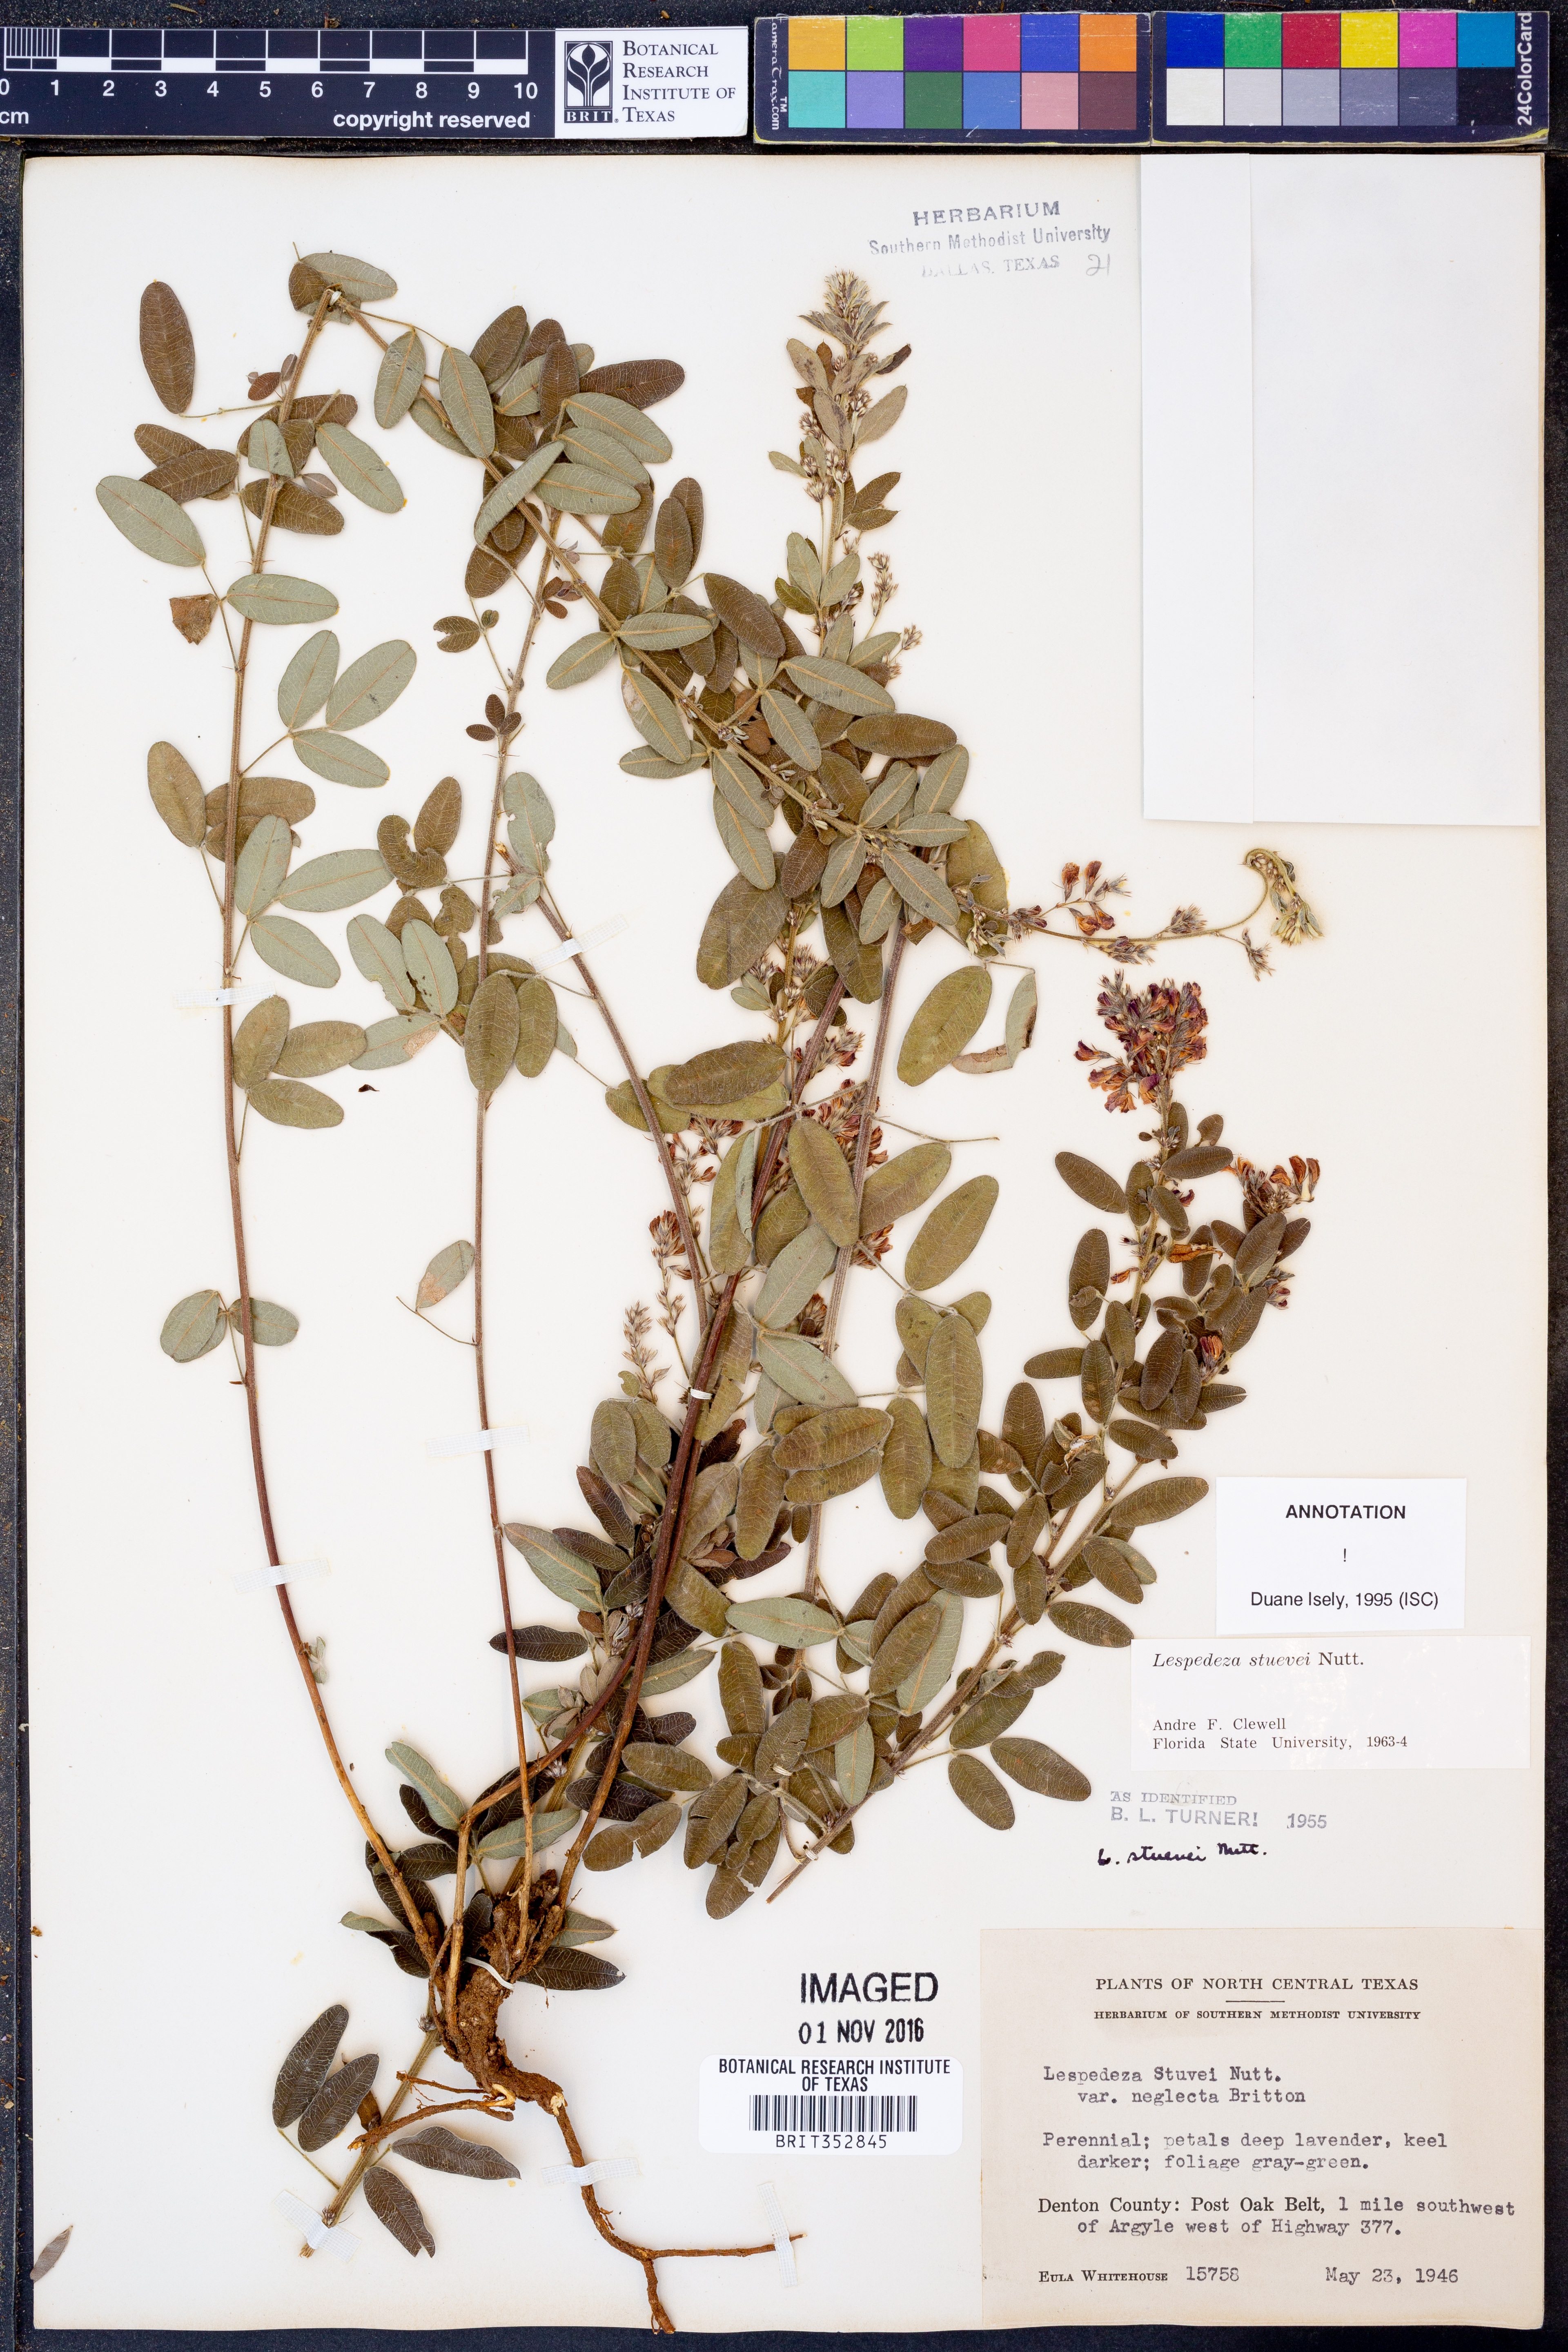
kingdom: Plantae
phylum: Tracheophyta
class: Magnoliopsida
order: Fabales
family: Fabaceae
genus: Lespedeza
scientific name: Lespedeza stuevei
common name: Tall bush-clover
